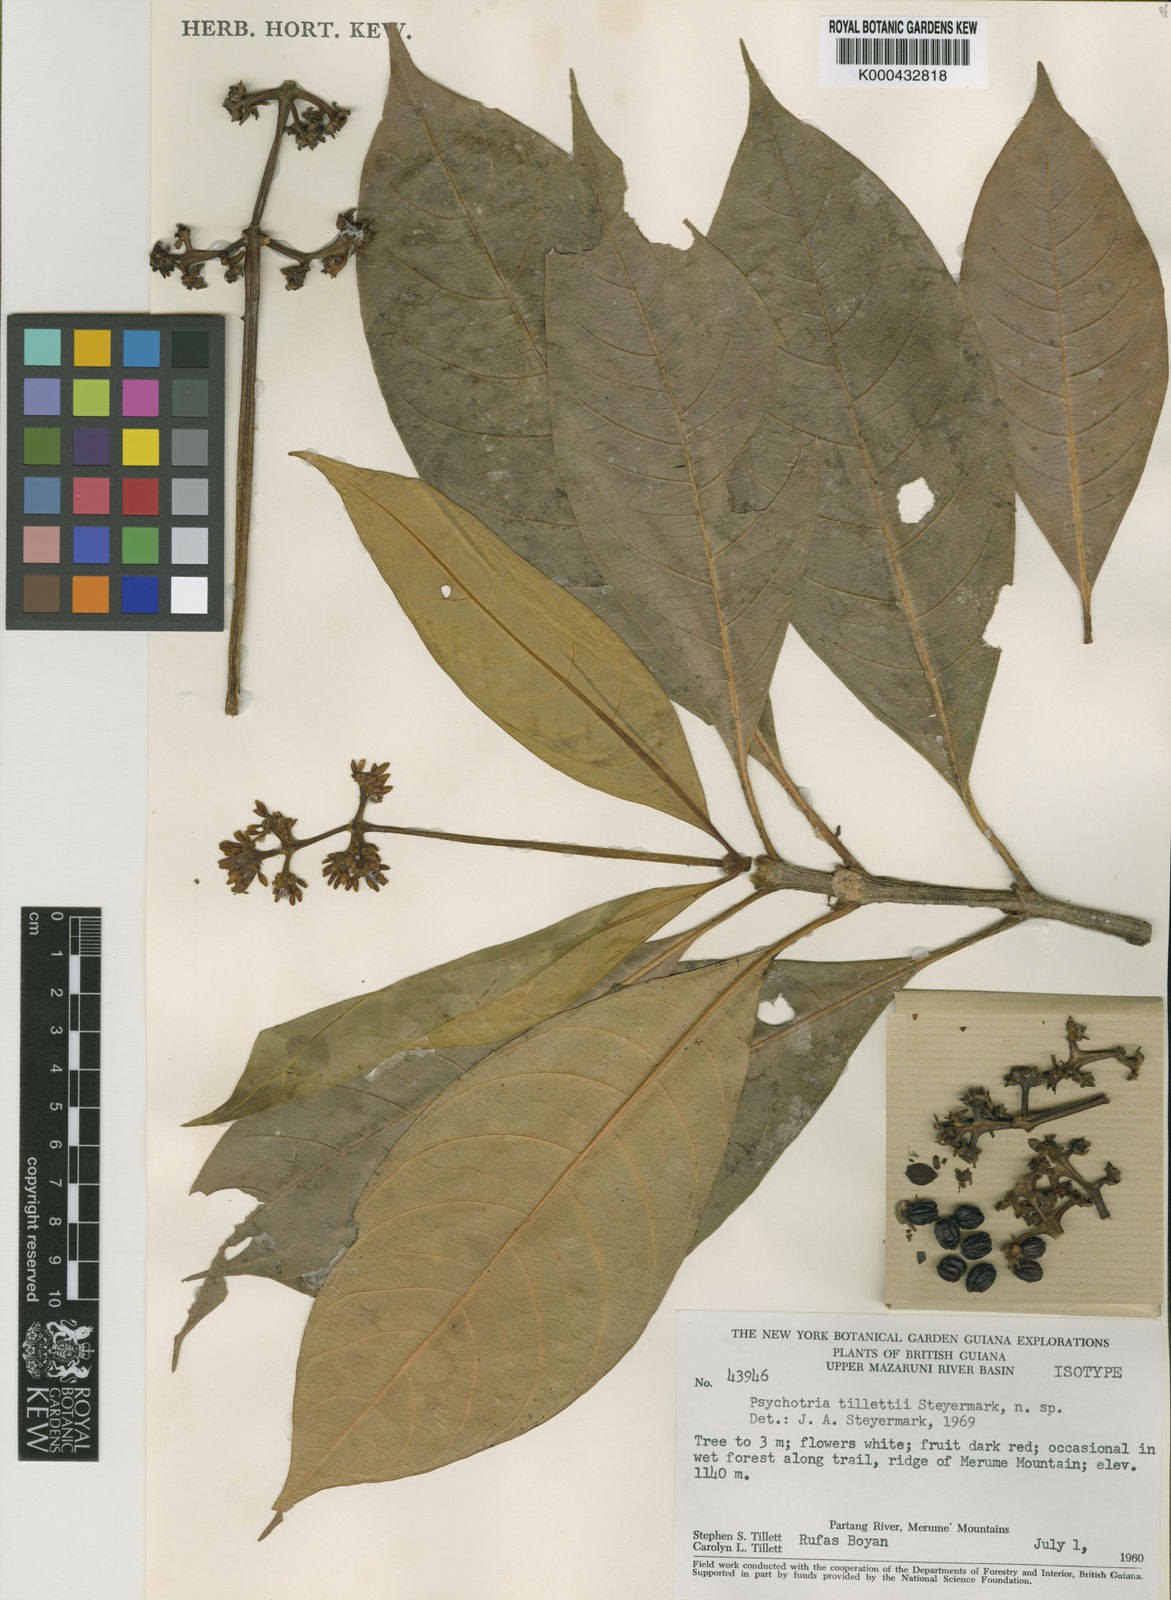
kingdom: Plantae
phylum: Tracheophyta
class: Magnoliopsida
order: Gentianales
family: Rubiaceae
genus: Carapichea
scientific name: Carapichea tillettii
